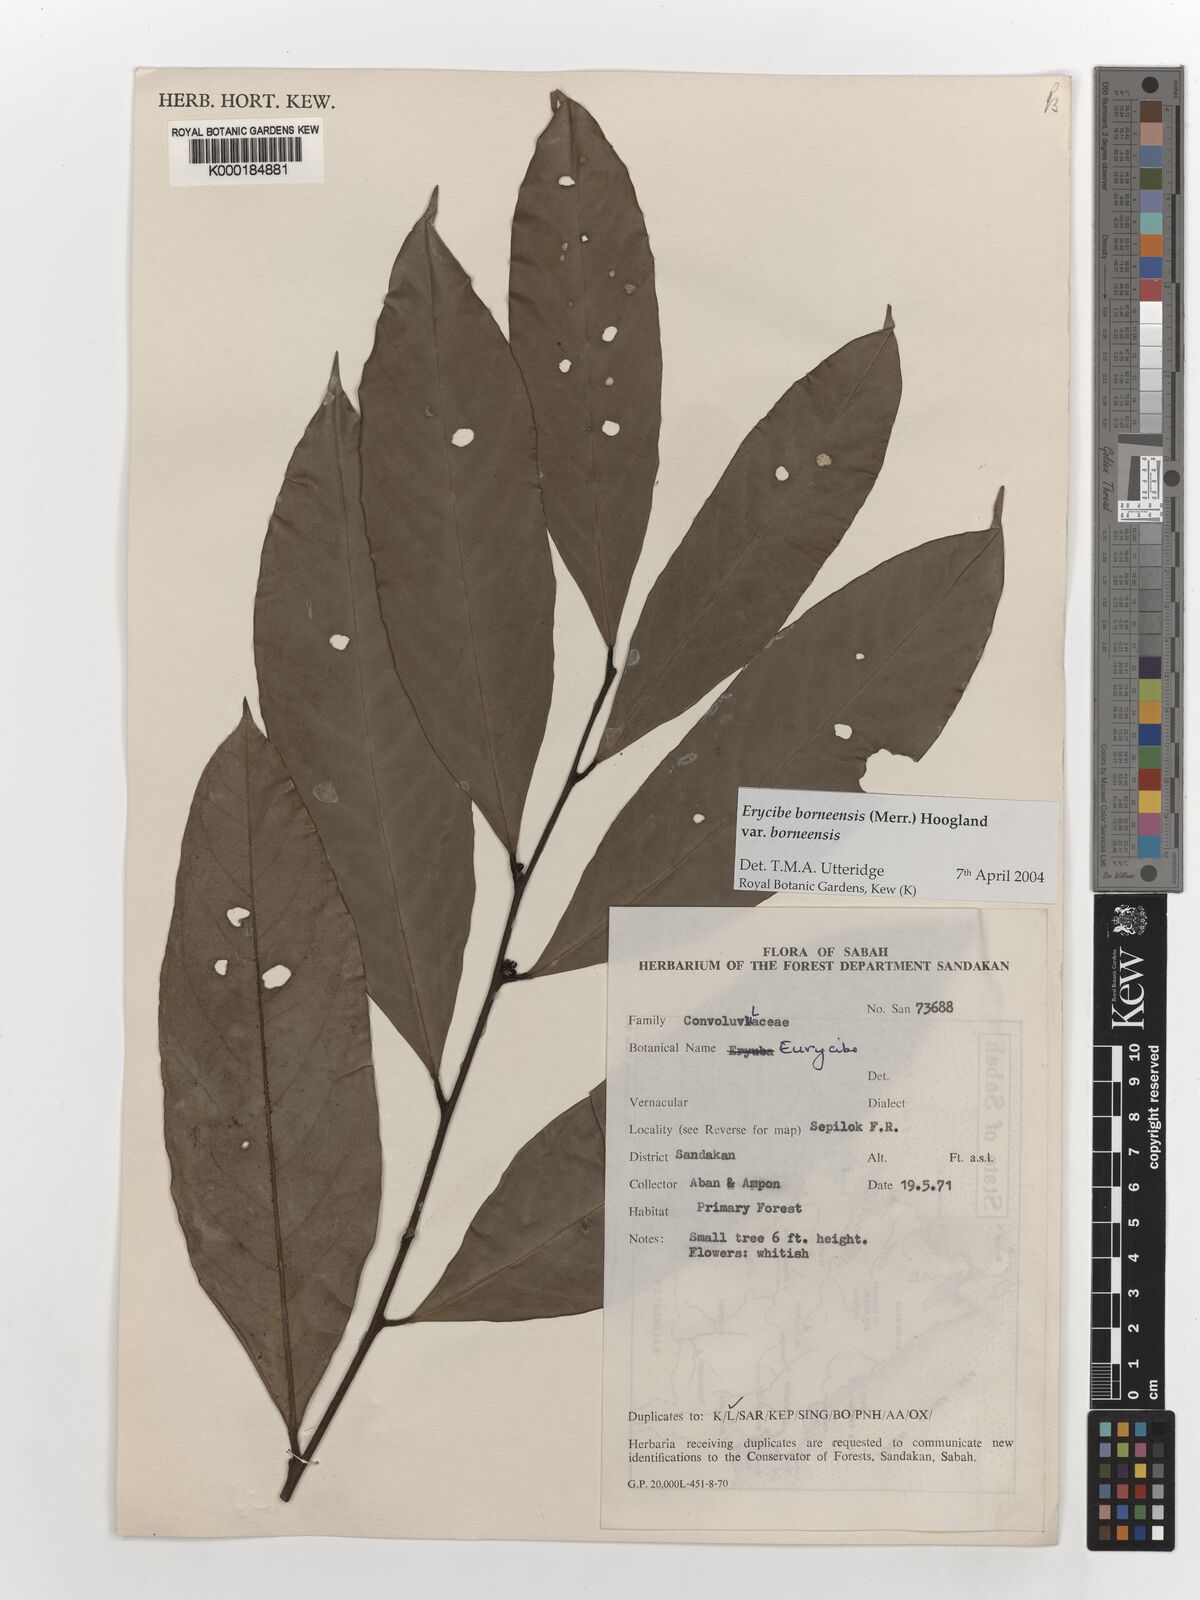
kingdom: Plantae
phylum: Tracheophyta
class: Magnoliopsida
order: Solanales
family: Convolvulaceae
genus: Erycibe
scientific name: Erycibe borneensis
